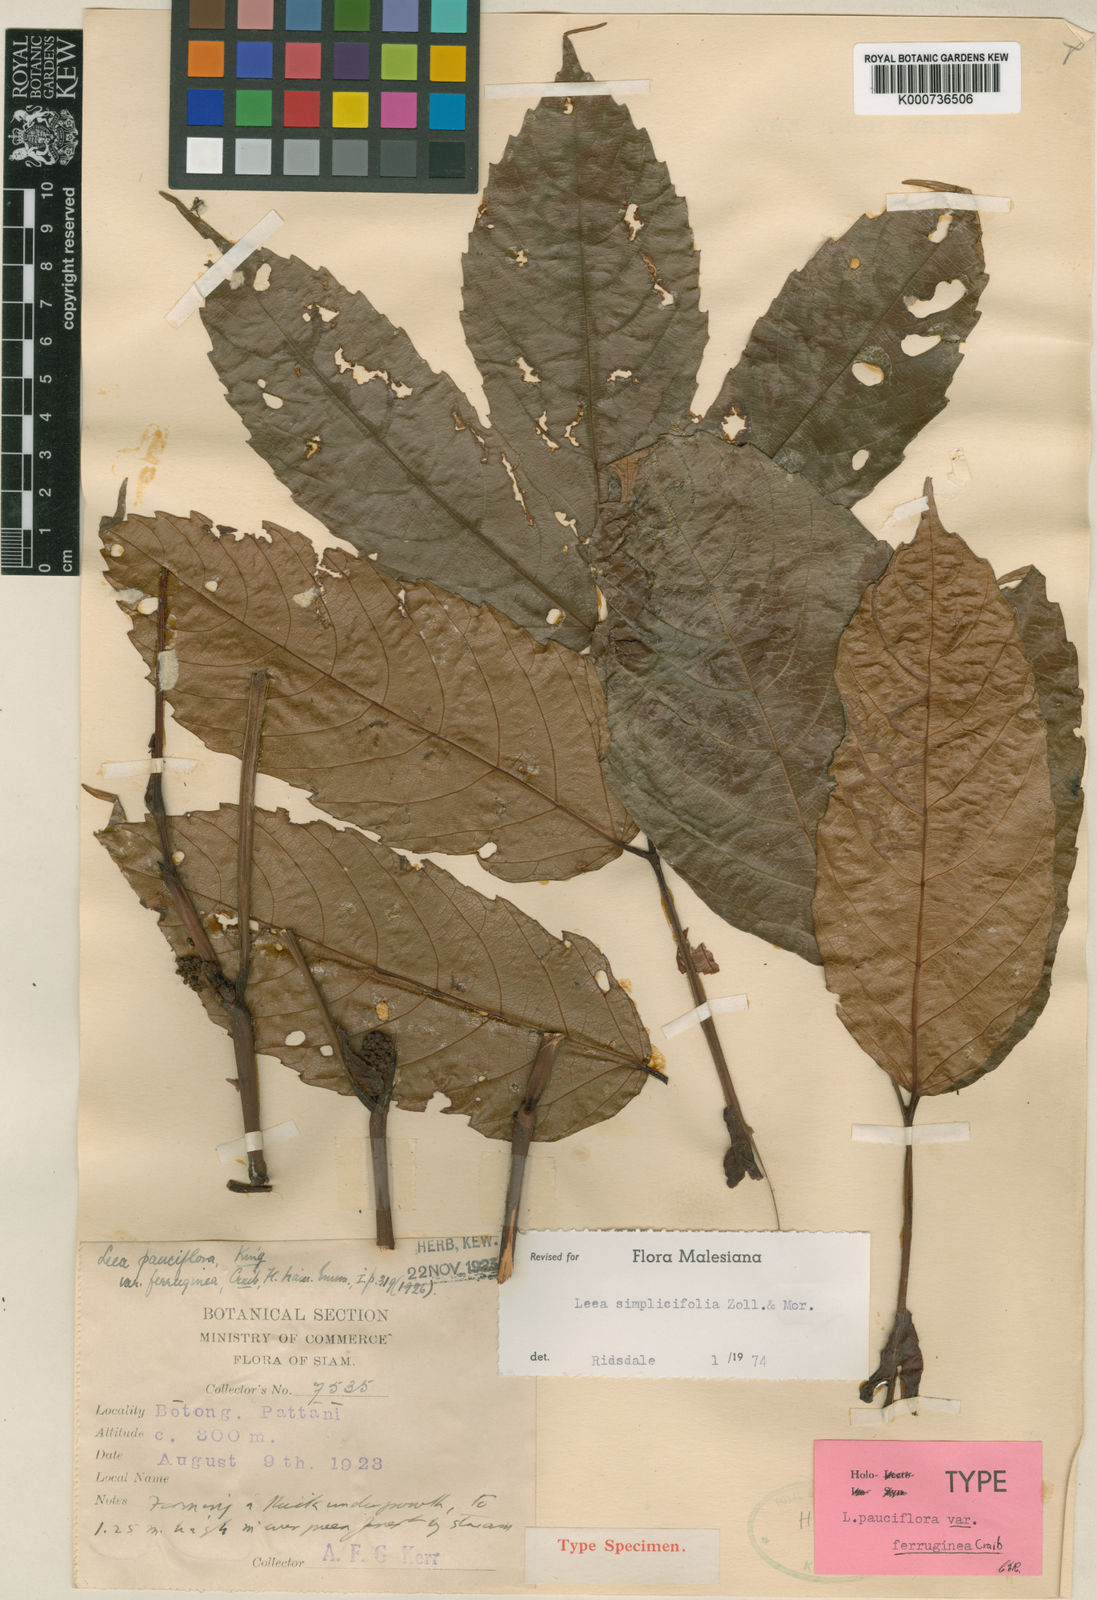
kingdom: Plantae
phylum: Tracheophyta
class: Magnoliopsida
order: Vitales
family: Vitaceae
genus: Leea
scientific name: Leea
